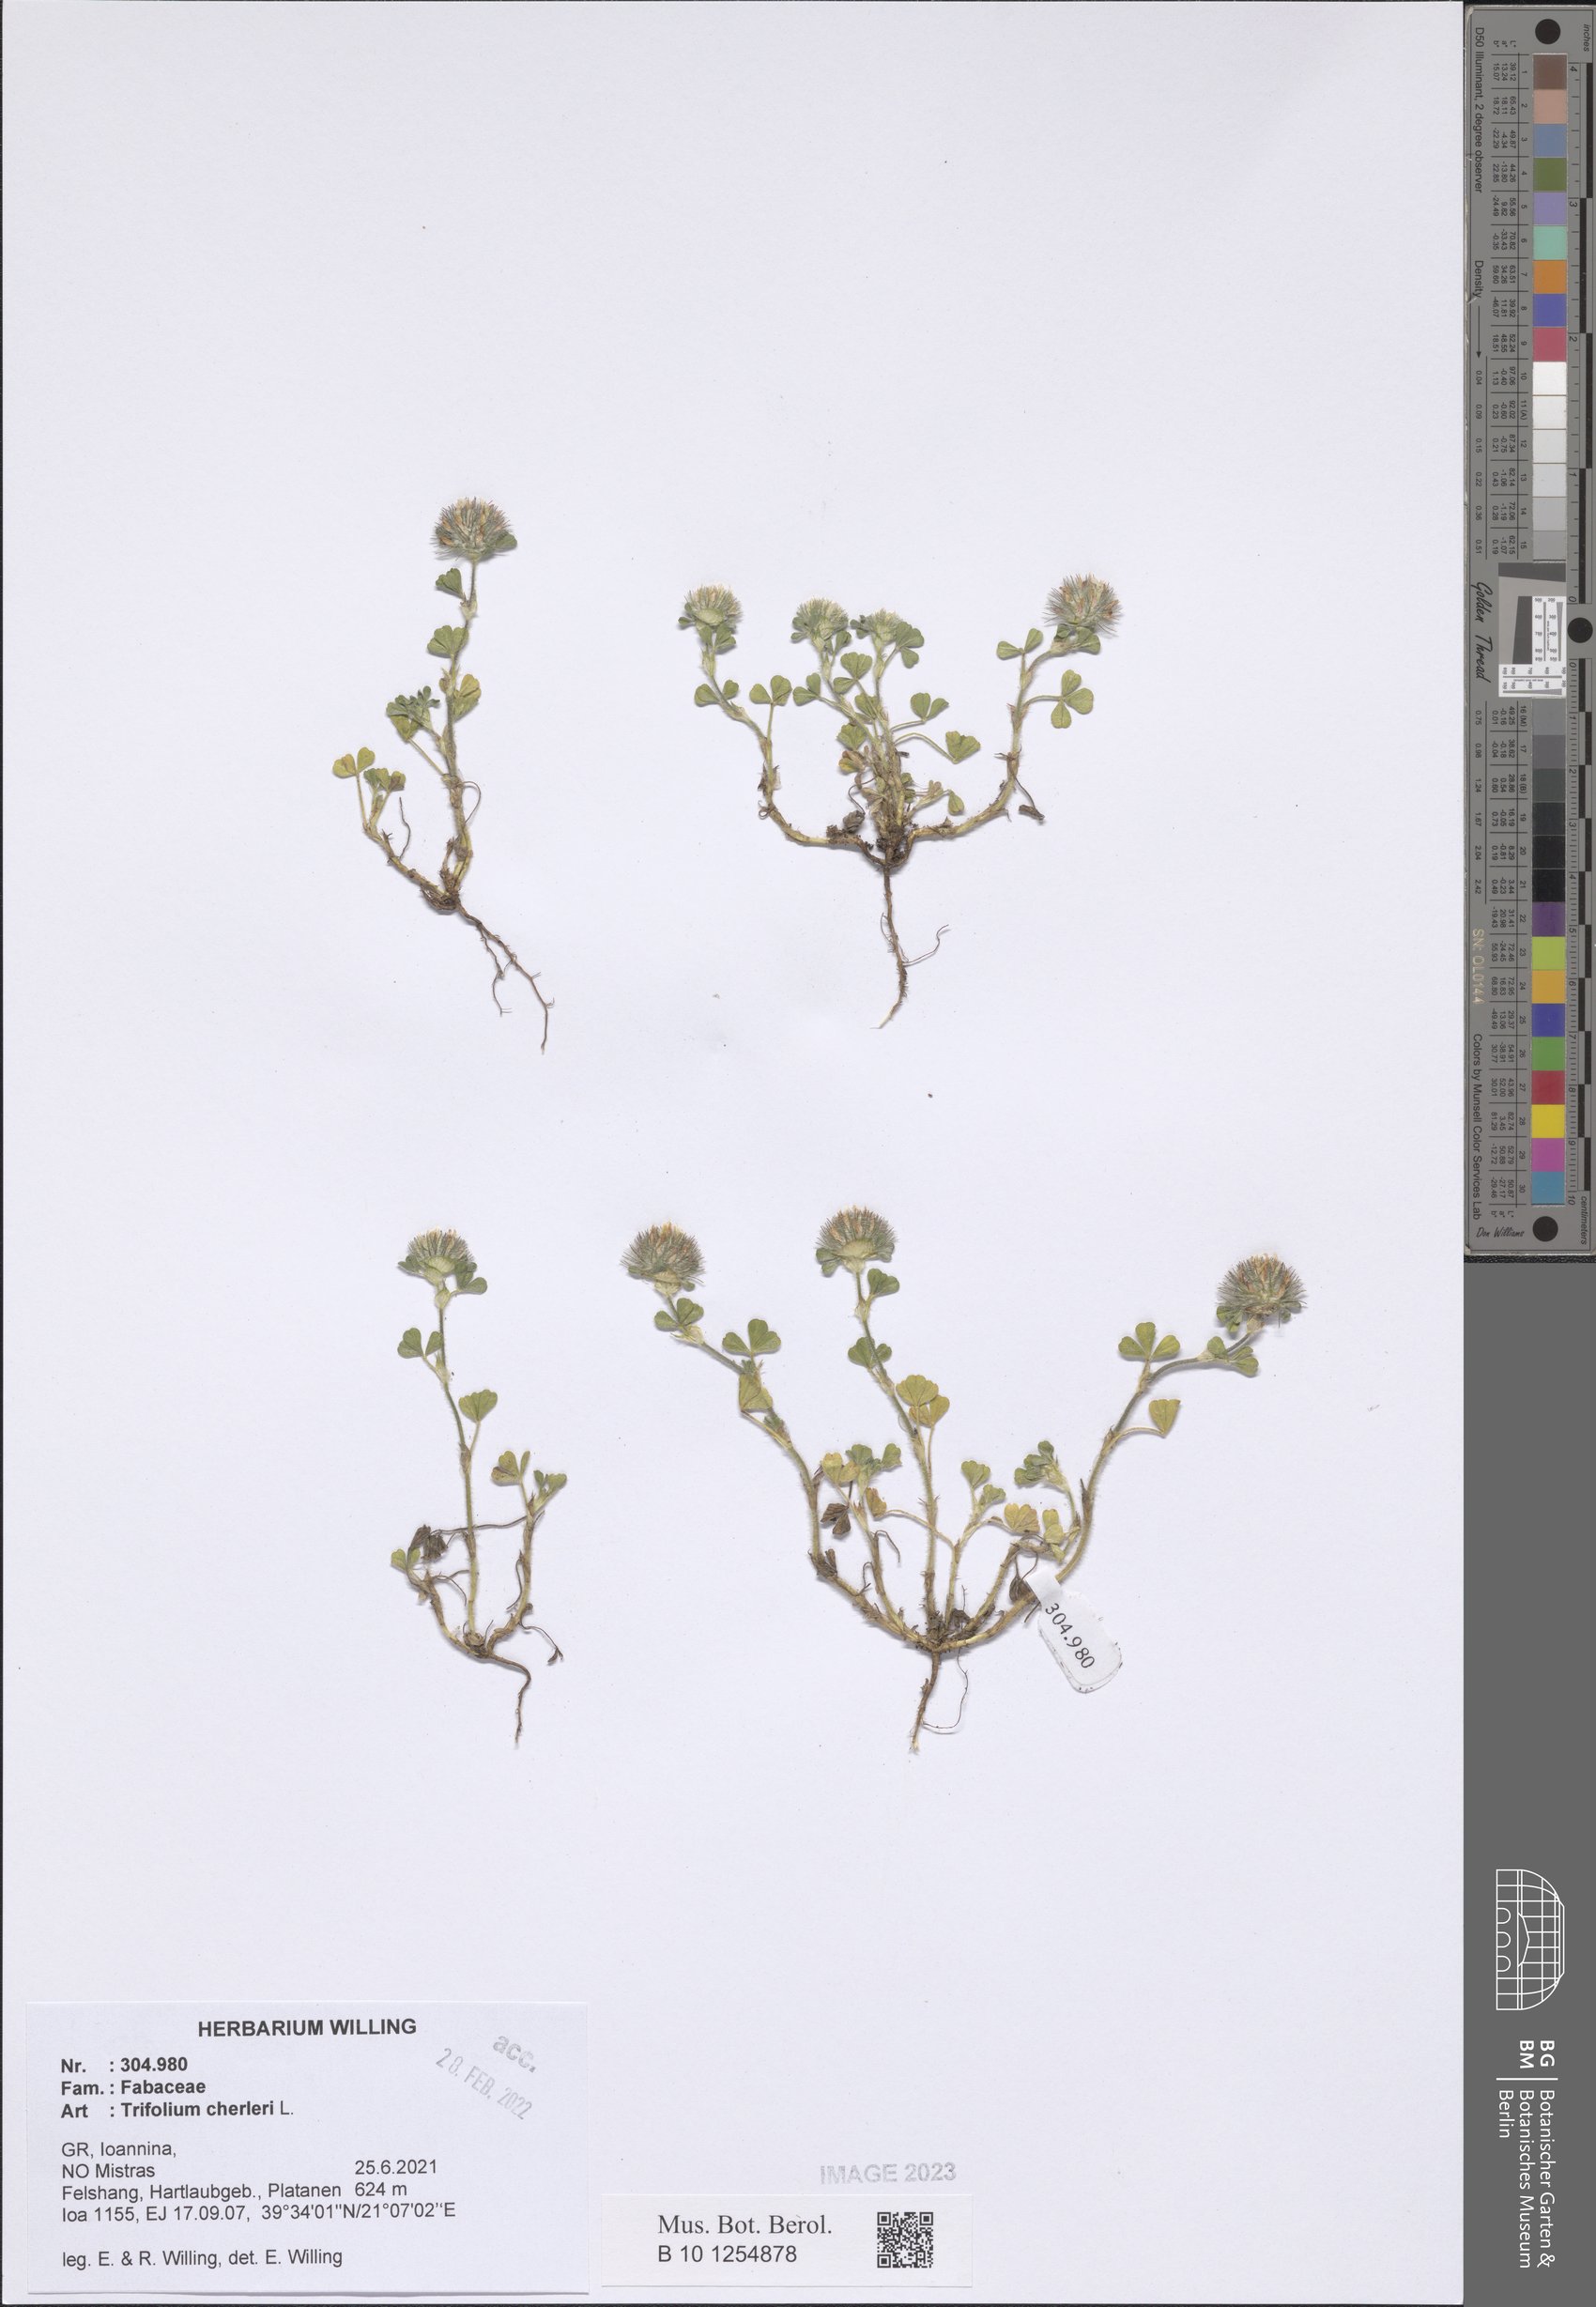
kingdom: Plantae
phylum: Tracheophyta
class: Magnoliopsida
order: Fabales
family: Fabaceae
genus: Trifolium
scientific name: Trifolium cherleri
